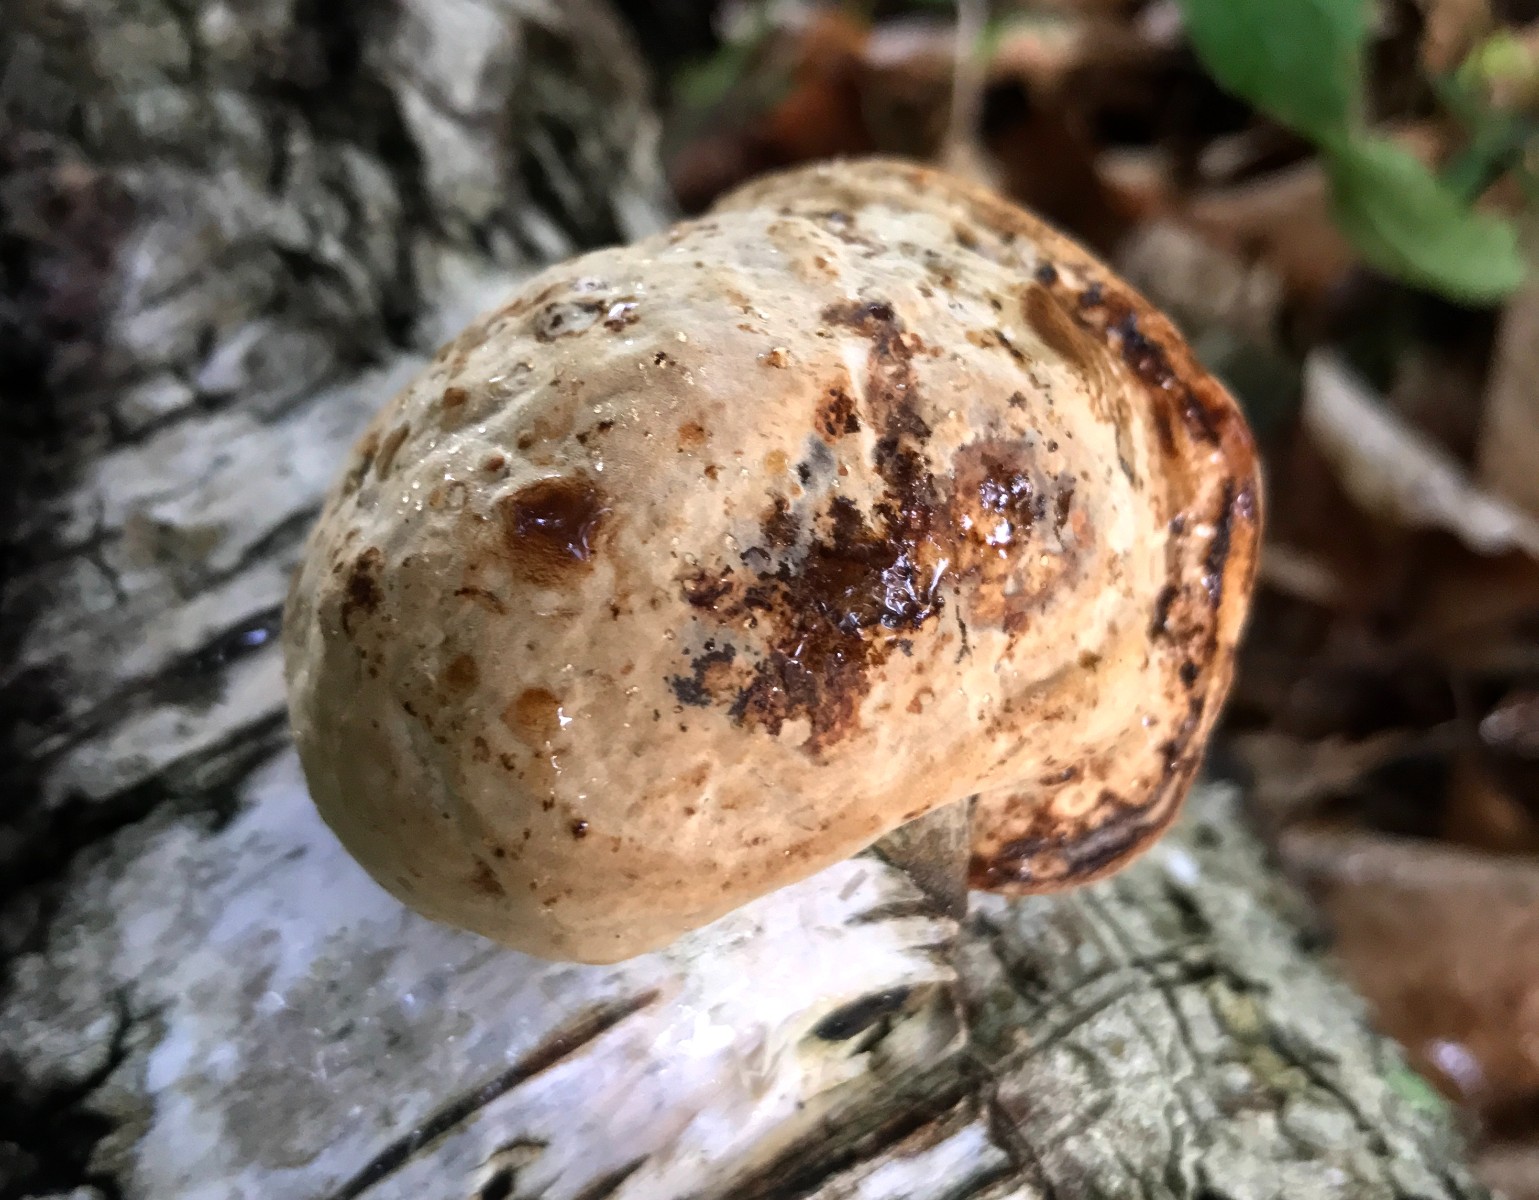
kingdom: Fungi
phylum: Basidiomycota
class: Agaricomycetes
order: Polyporales
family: Fomitopsidaceae
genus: Fomitopsis
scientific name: Fomitopsis betulina
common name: birkeporesvamp
